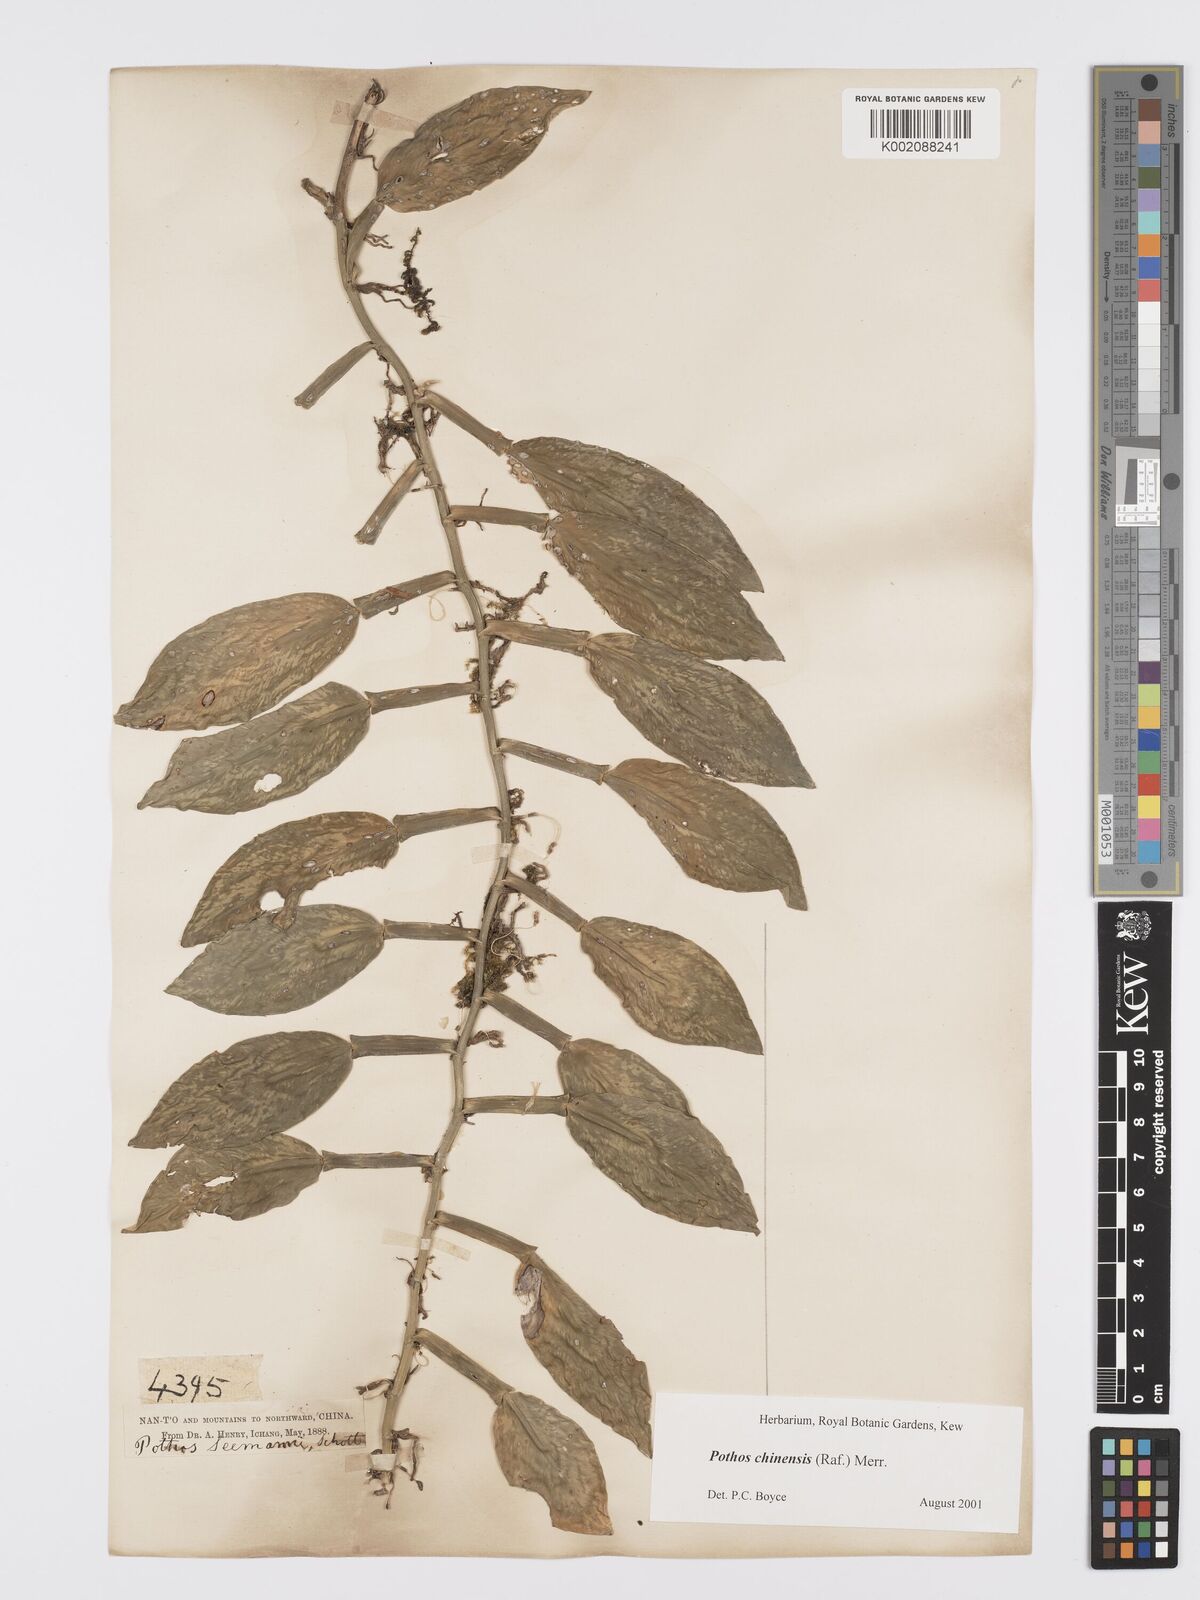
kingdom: Plantae
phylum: Tracheophyta
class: Liliopsida
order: Alismatales
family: Araceae
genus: Pothos
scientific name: Pothos chinensis
